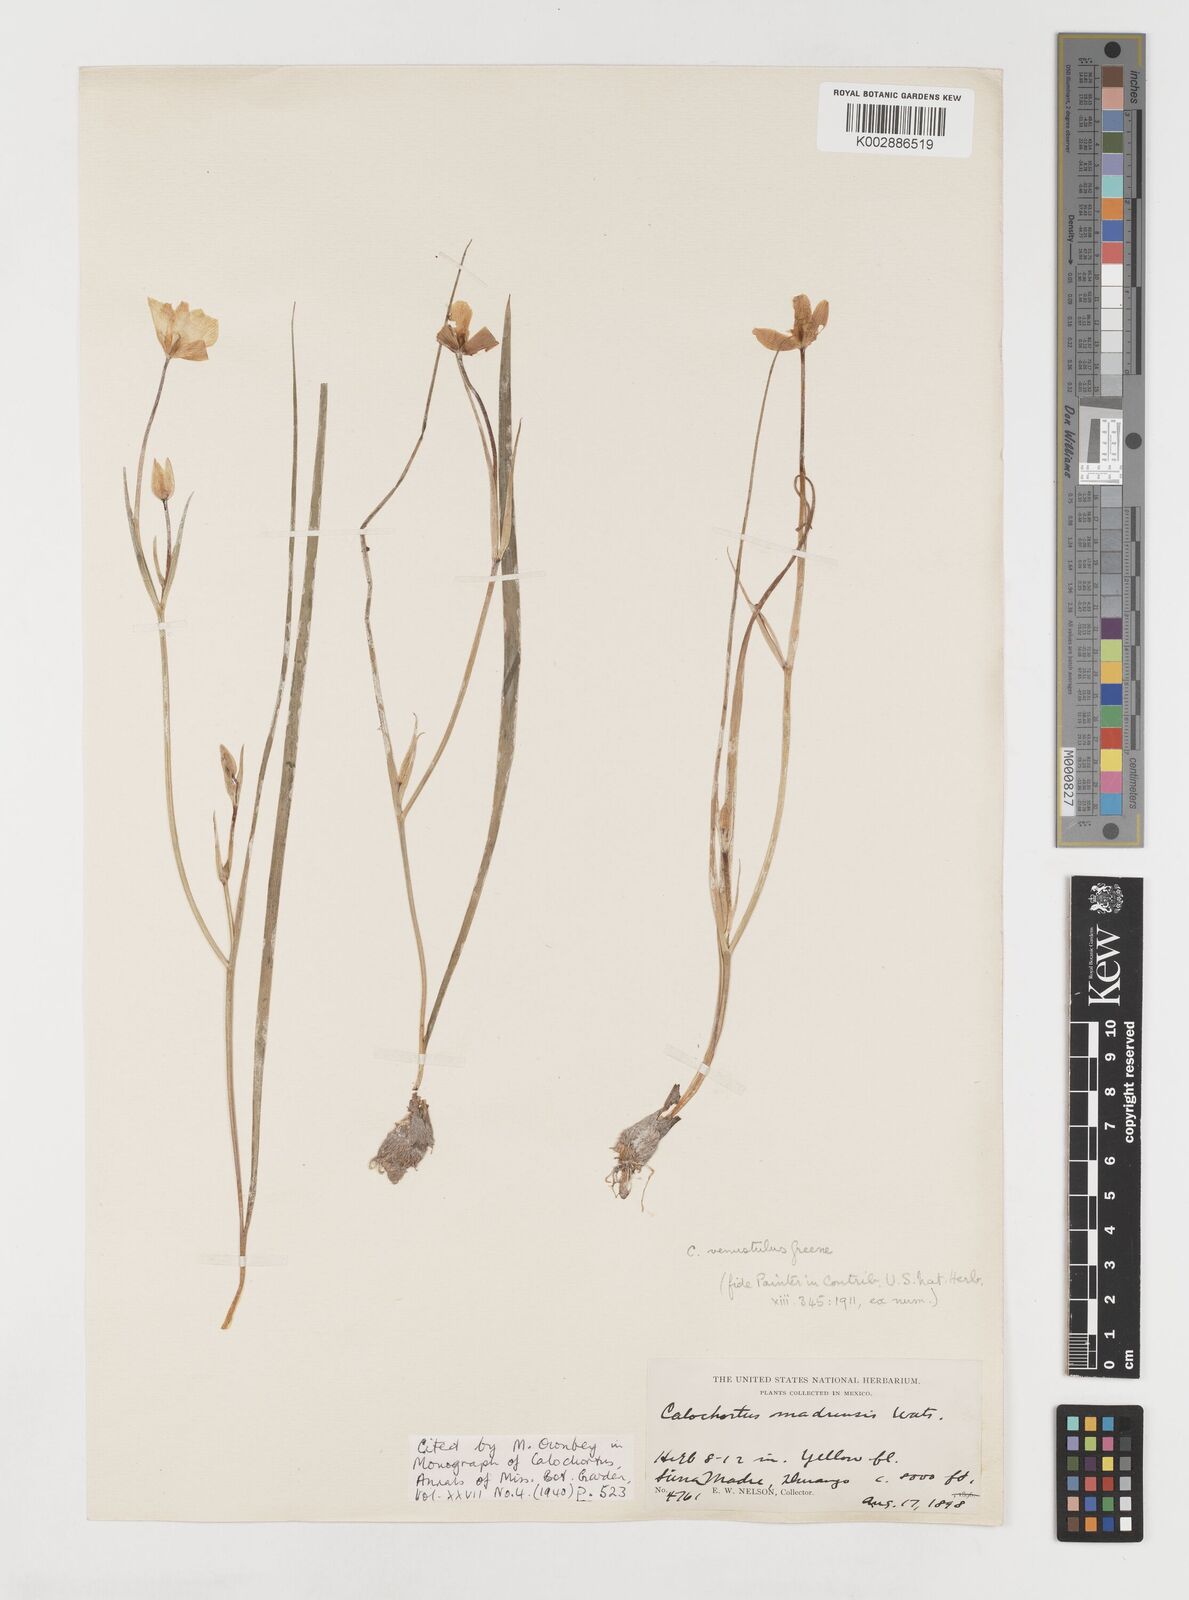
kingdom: Plantae
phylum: Tracheophyta
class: Liliopsida
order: Liliales
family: Liliaceae
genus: Calochortus
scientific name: Calochortus venustulus
